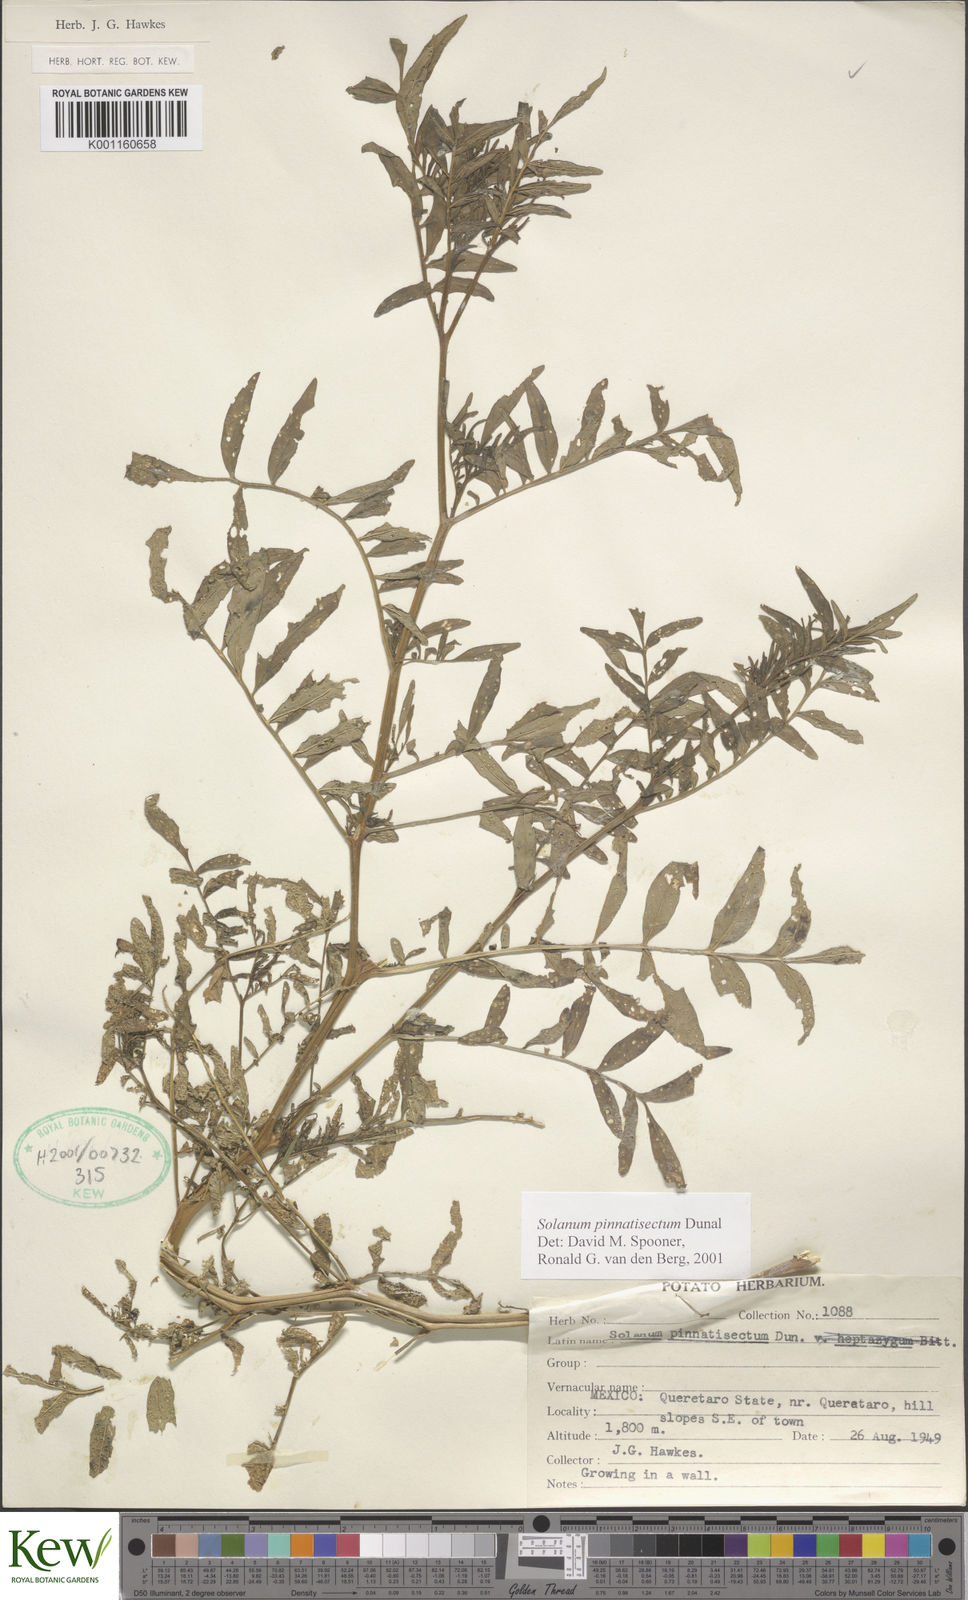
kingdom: Plantae
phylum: Tracheophyta
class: Magnoliopsida
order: Solanales
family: Solanaceae
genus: Solanum
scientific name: Solanum pinnatisectum
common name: Tansyleaf nightshade
